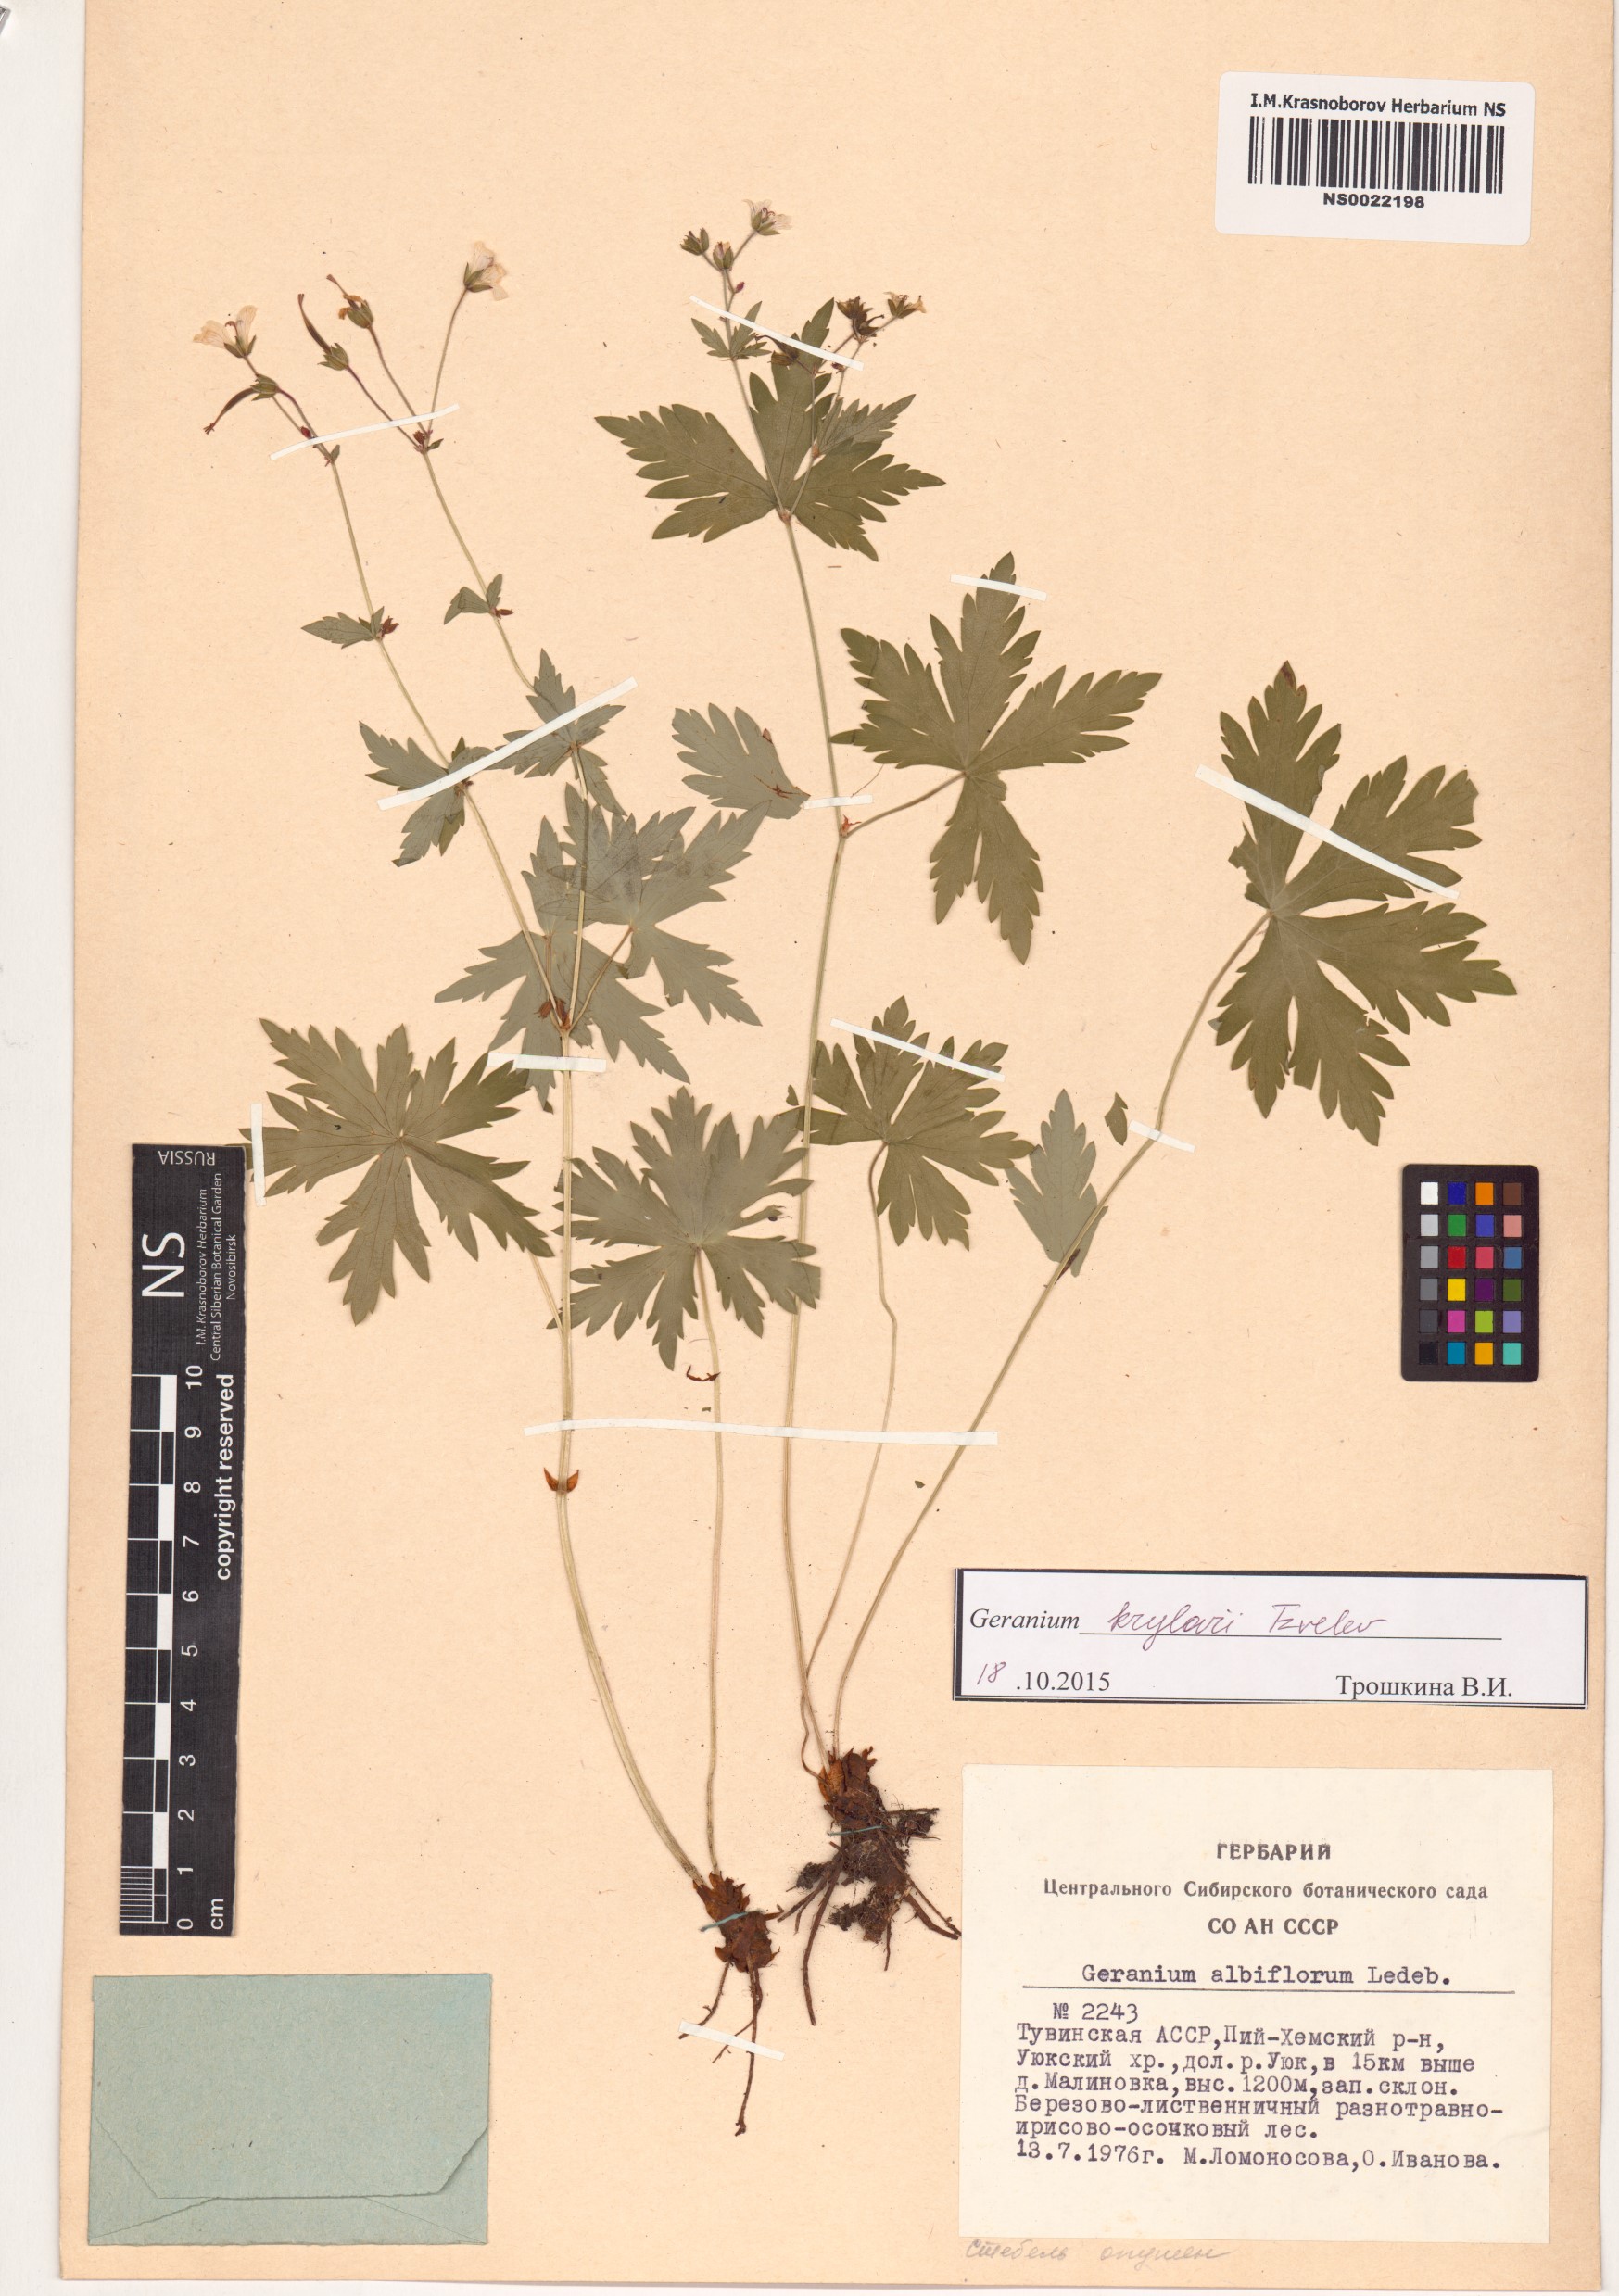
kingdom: Plantae
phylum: Tracheophyta
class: Magnoliopsida
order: Geraniales
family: Geraniaceae
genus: Geranium
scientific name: Geranium sylvaticum
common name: Wood crane's-bill
